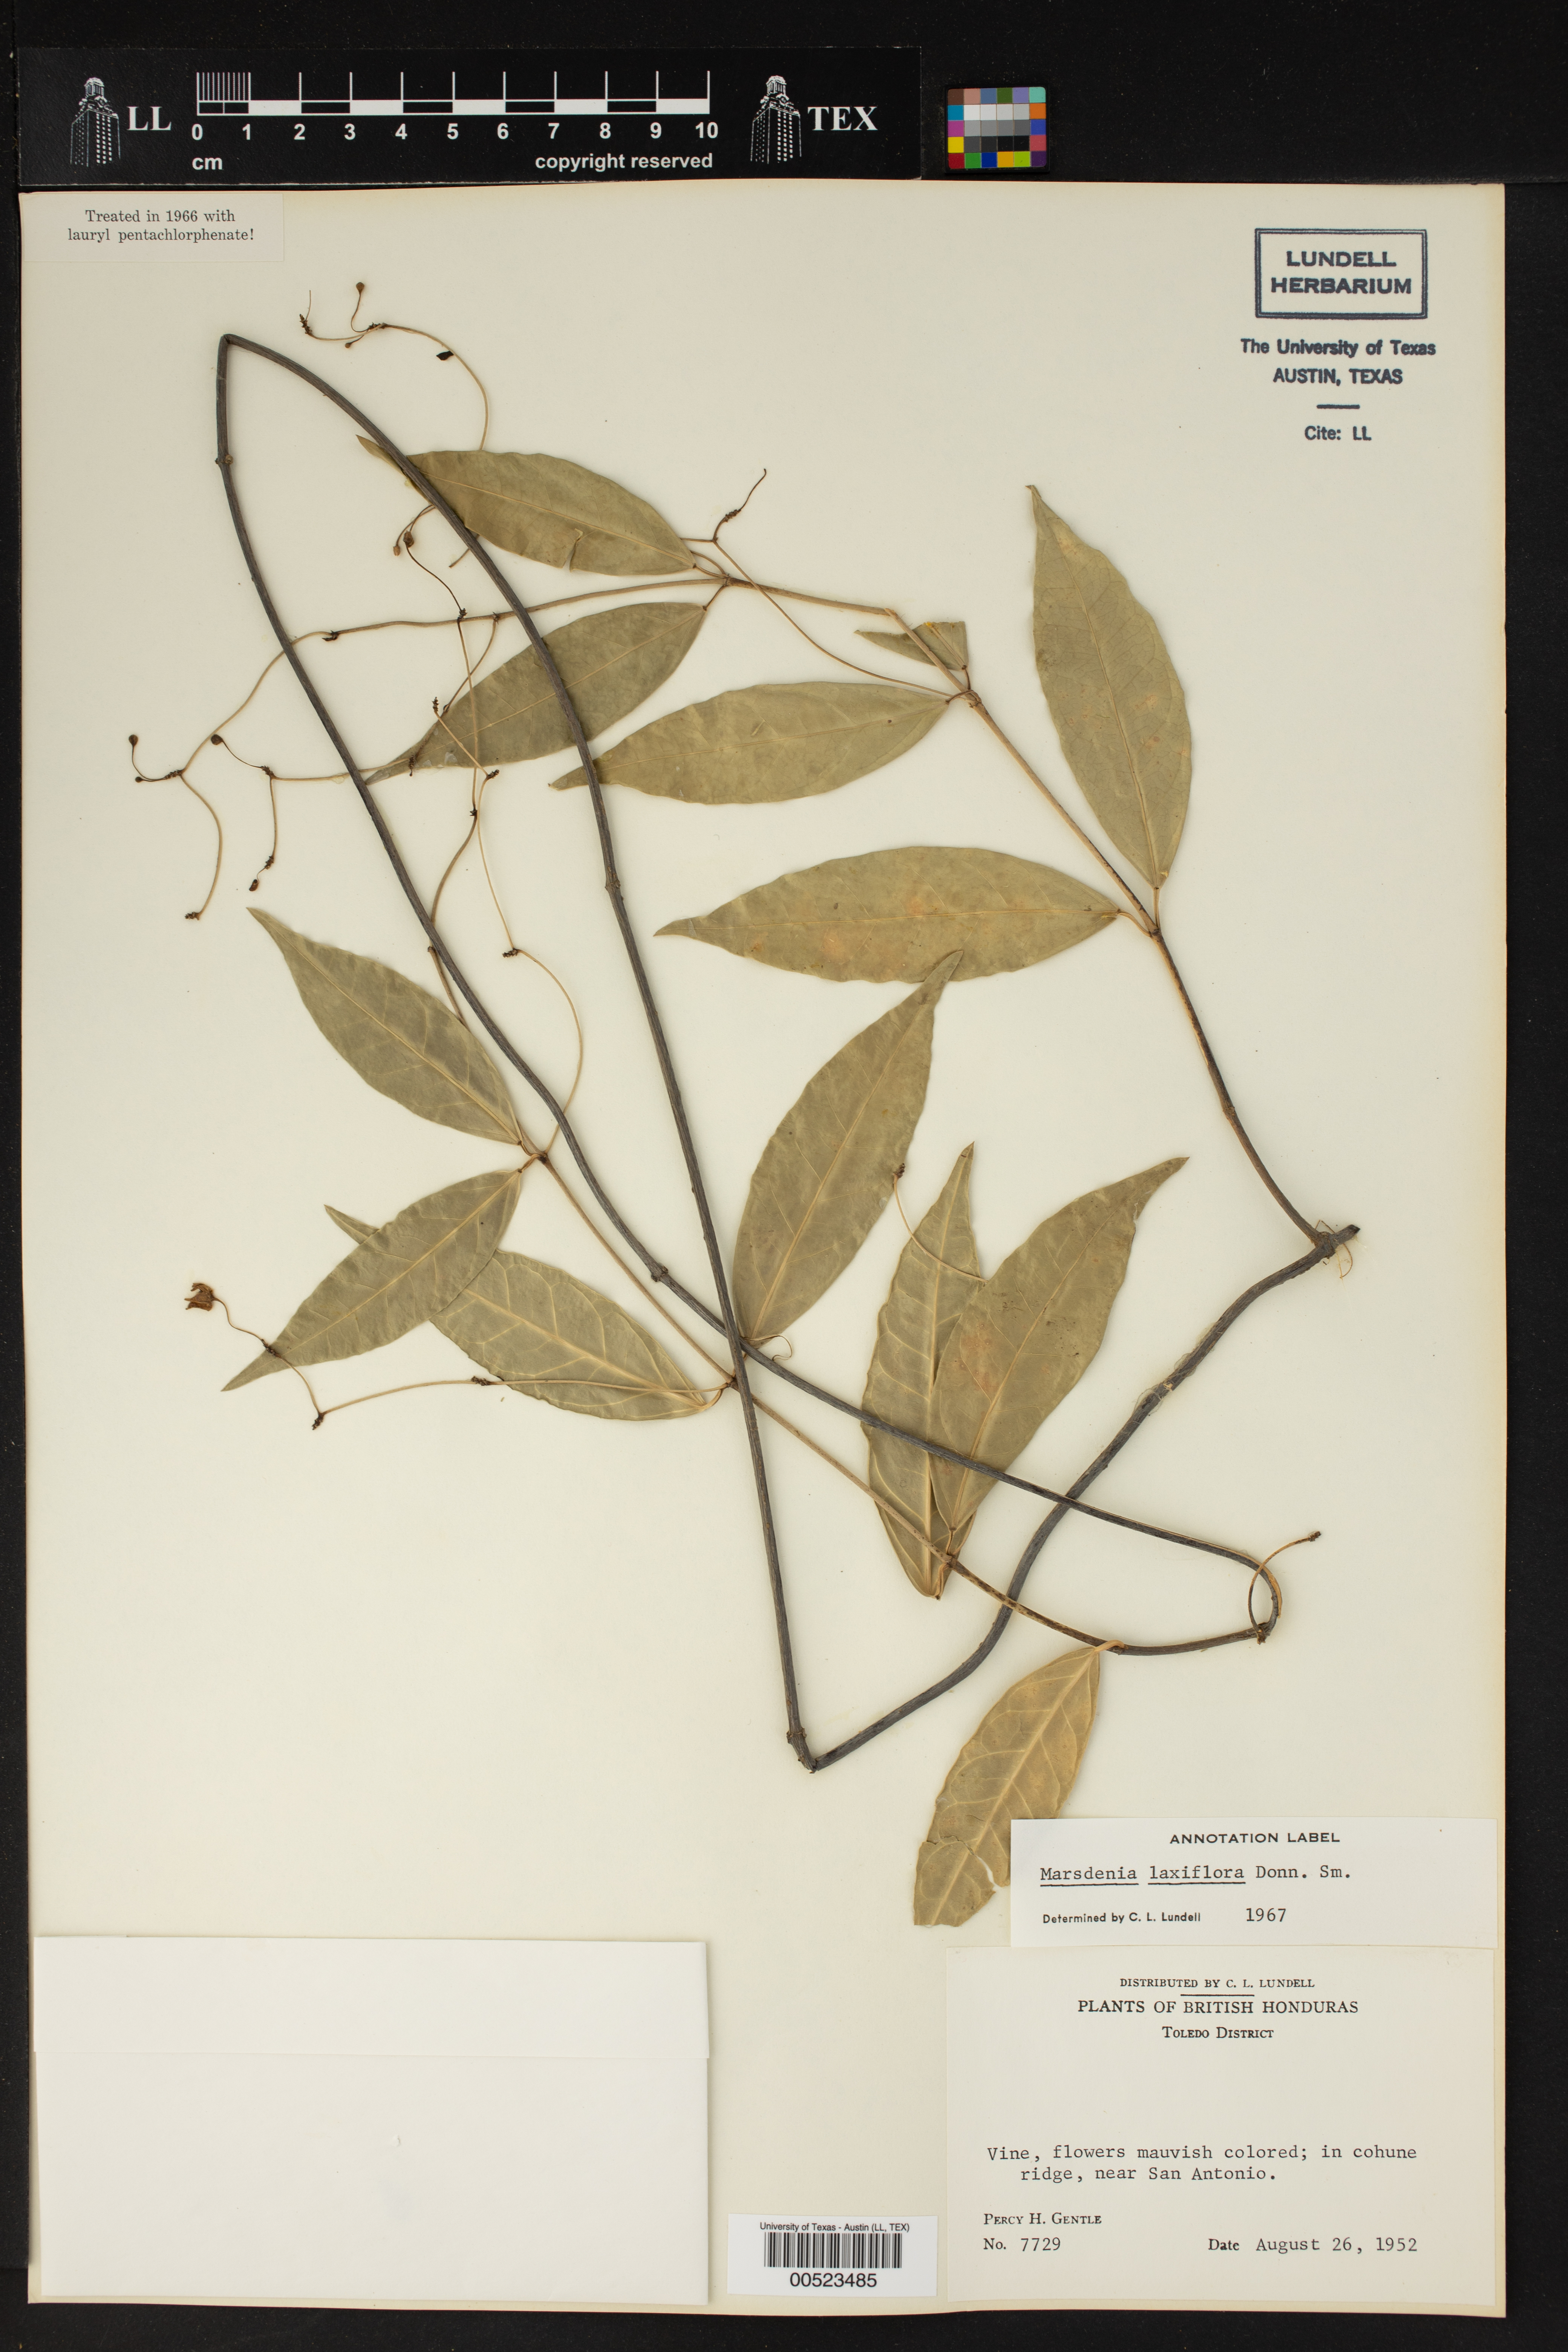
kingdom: Plantae
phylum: Tracheophyta
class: Magnoliopsida
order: Gentianales
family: Apocynaceae
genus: Ruehssia
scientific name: Ruehssia laxiflora
